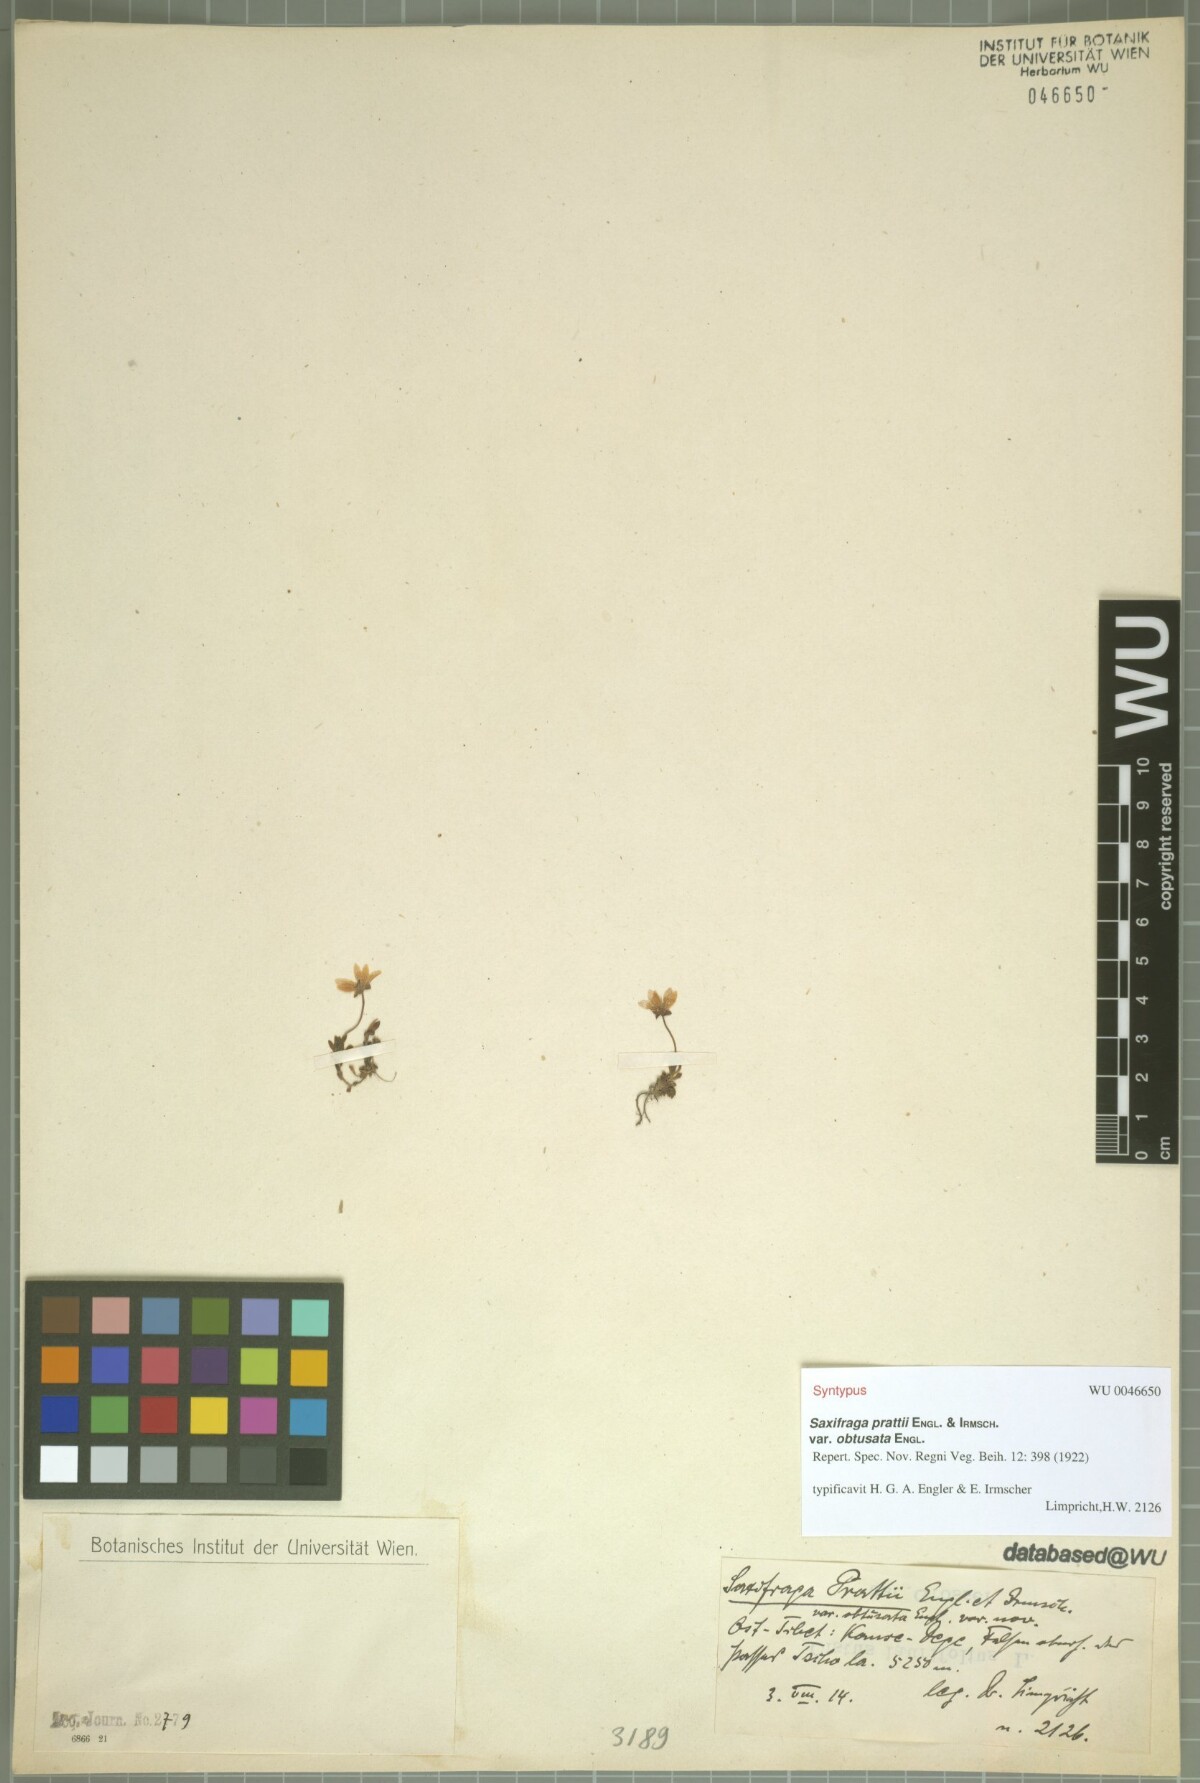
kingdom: Plantae
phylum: Tracheophyta
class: Magnoliopsida
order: Saxifragales
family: Saxifragaceae
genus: Saxifraga
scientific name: Saxifraga prattii
